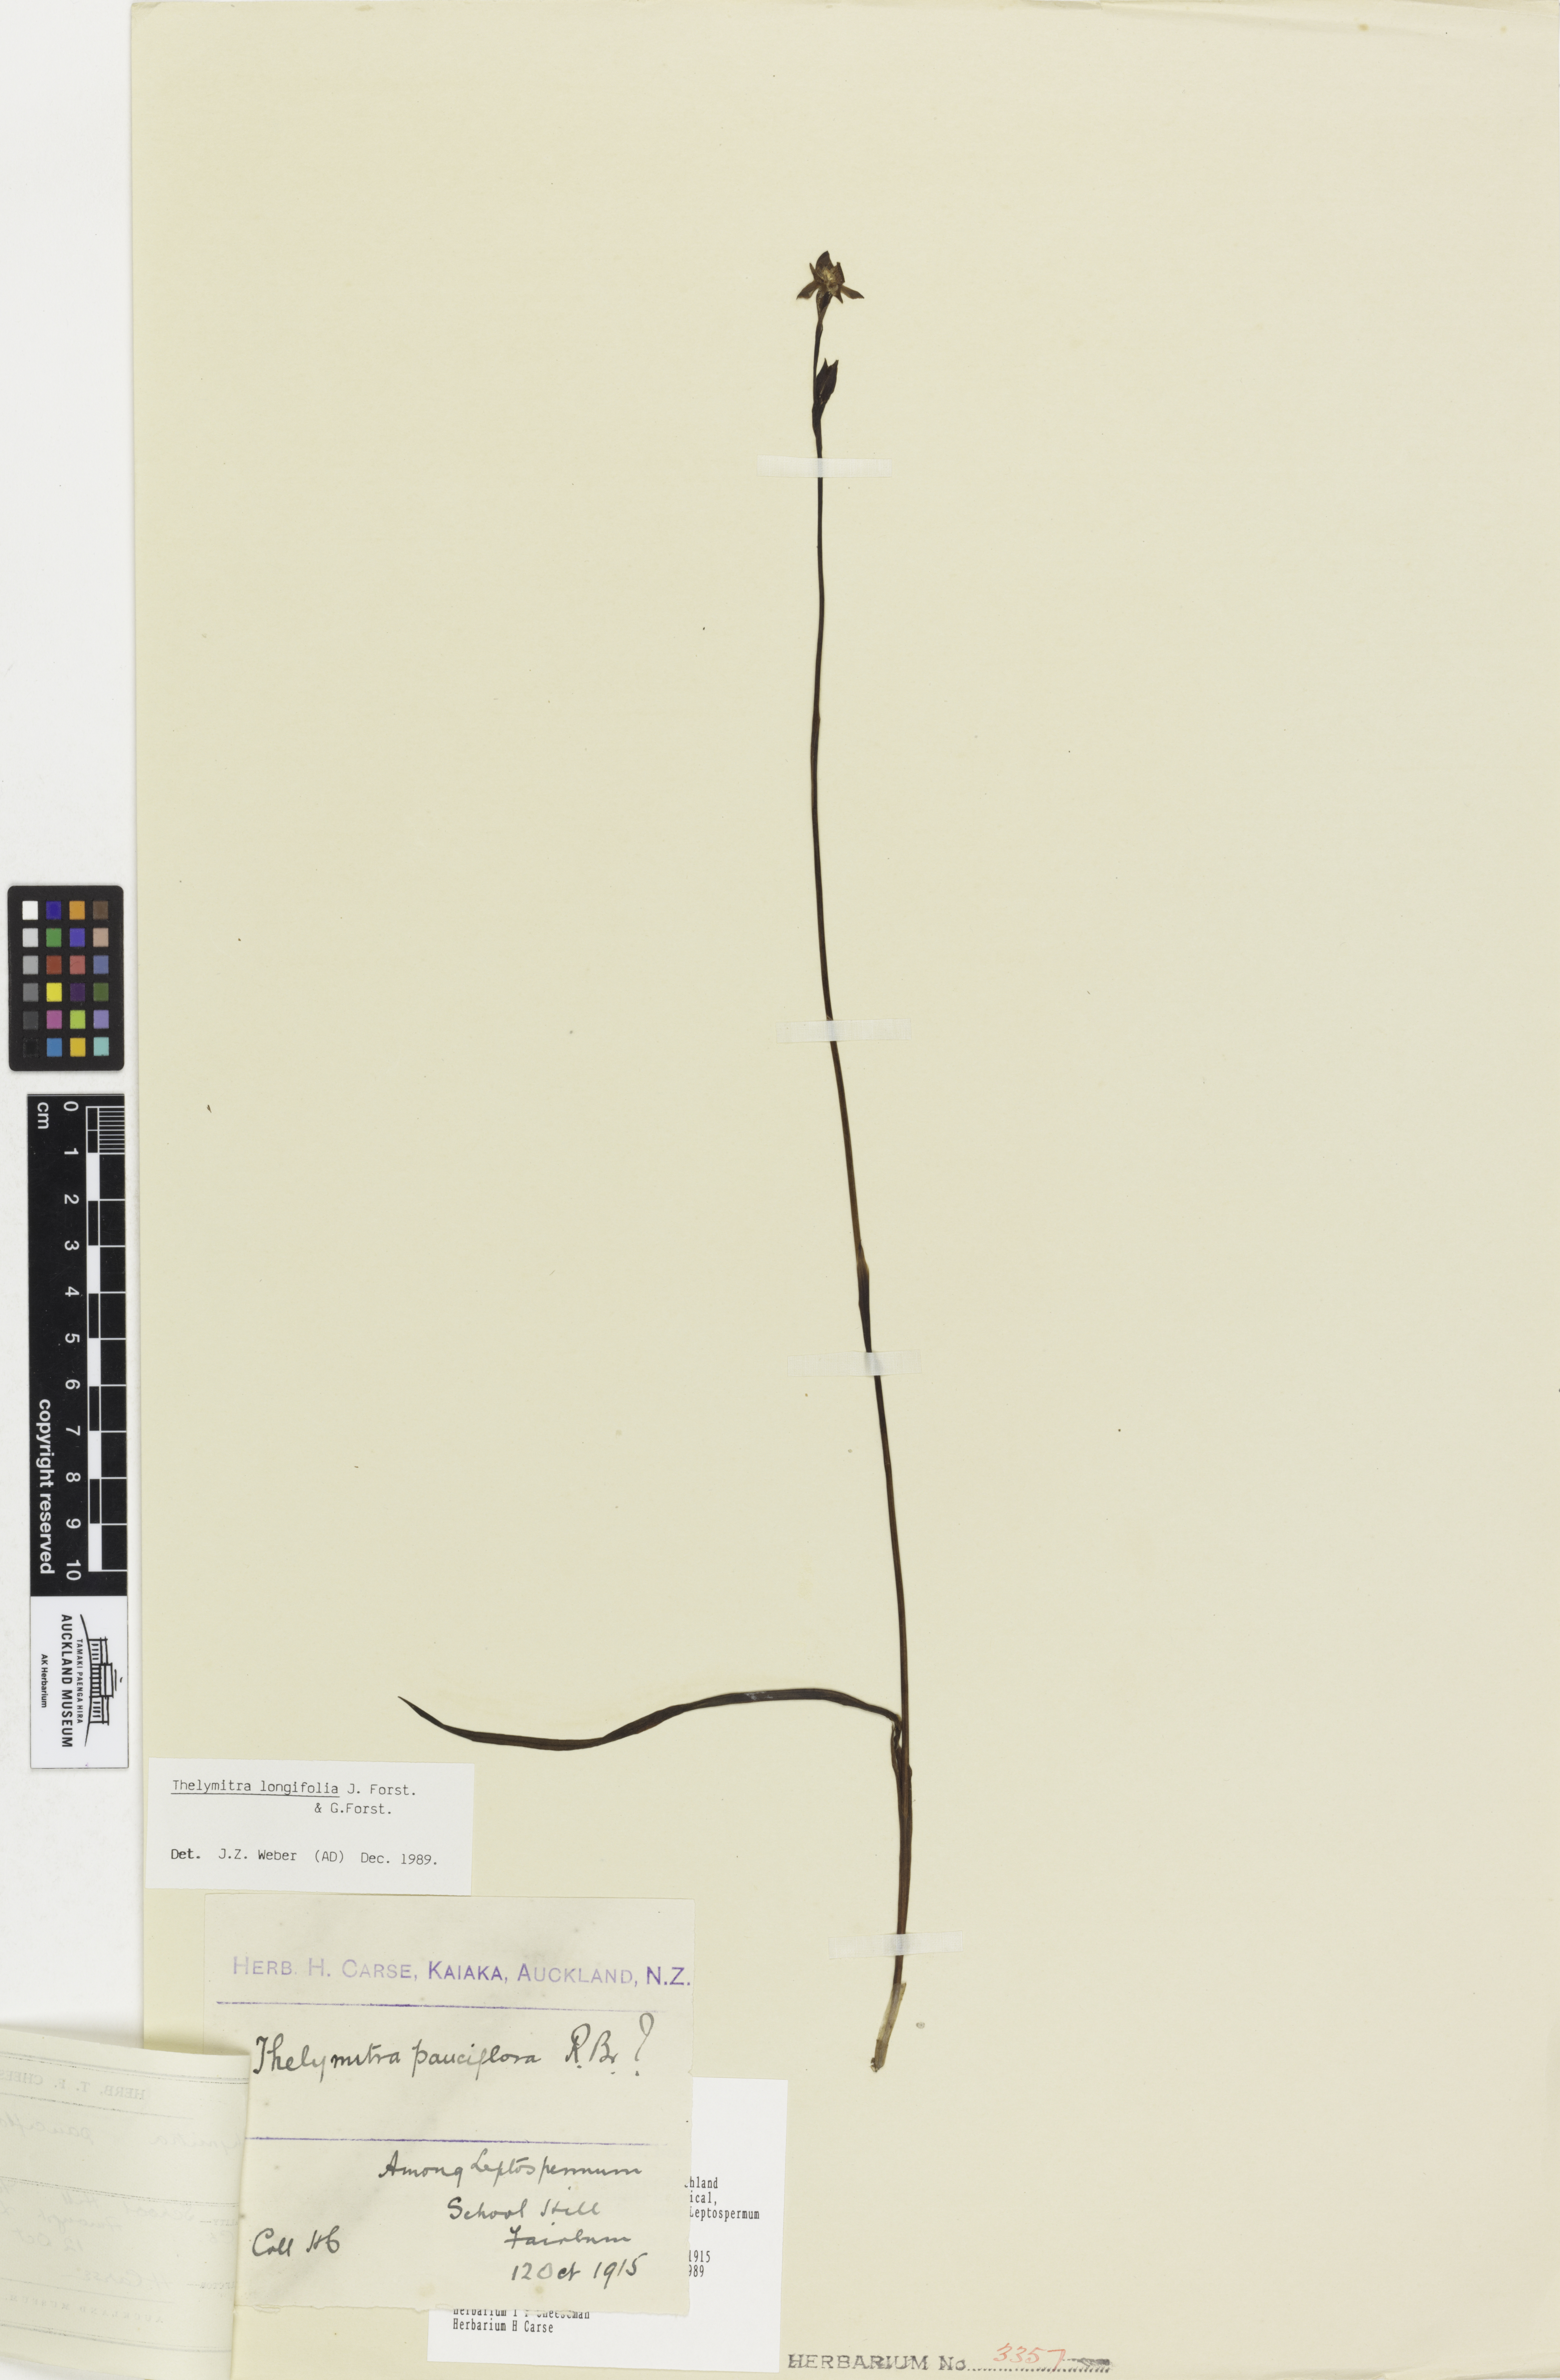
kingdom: Plantae
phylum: Tracheophyta
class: Liliopsida
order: Asparagales
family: Orchidaceae
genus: Thelymitra
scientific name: Thelymitra longifolia
